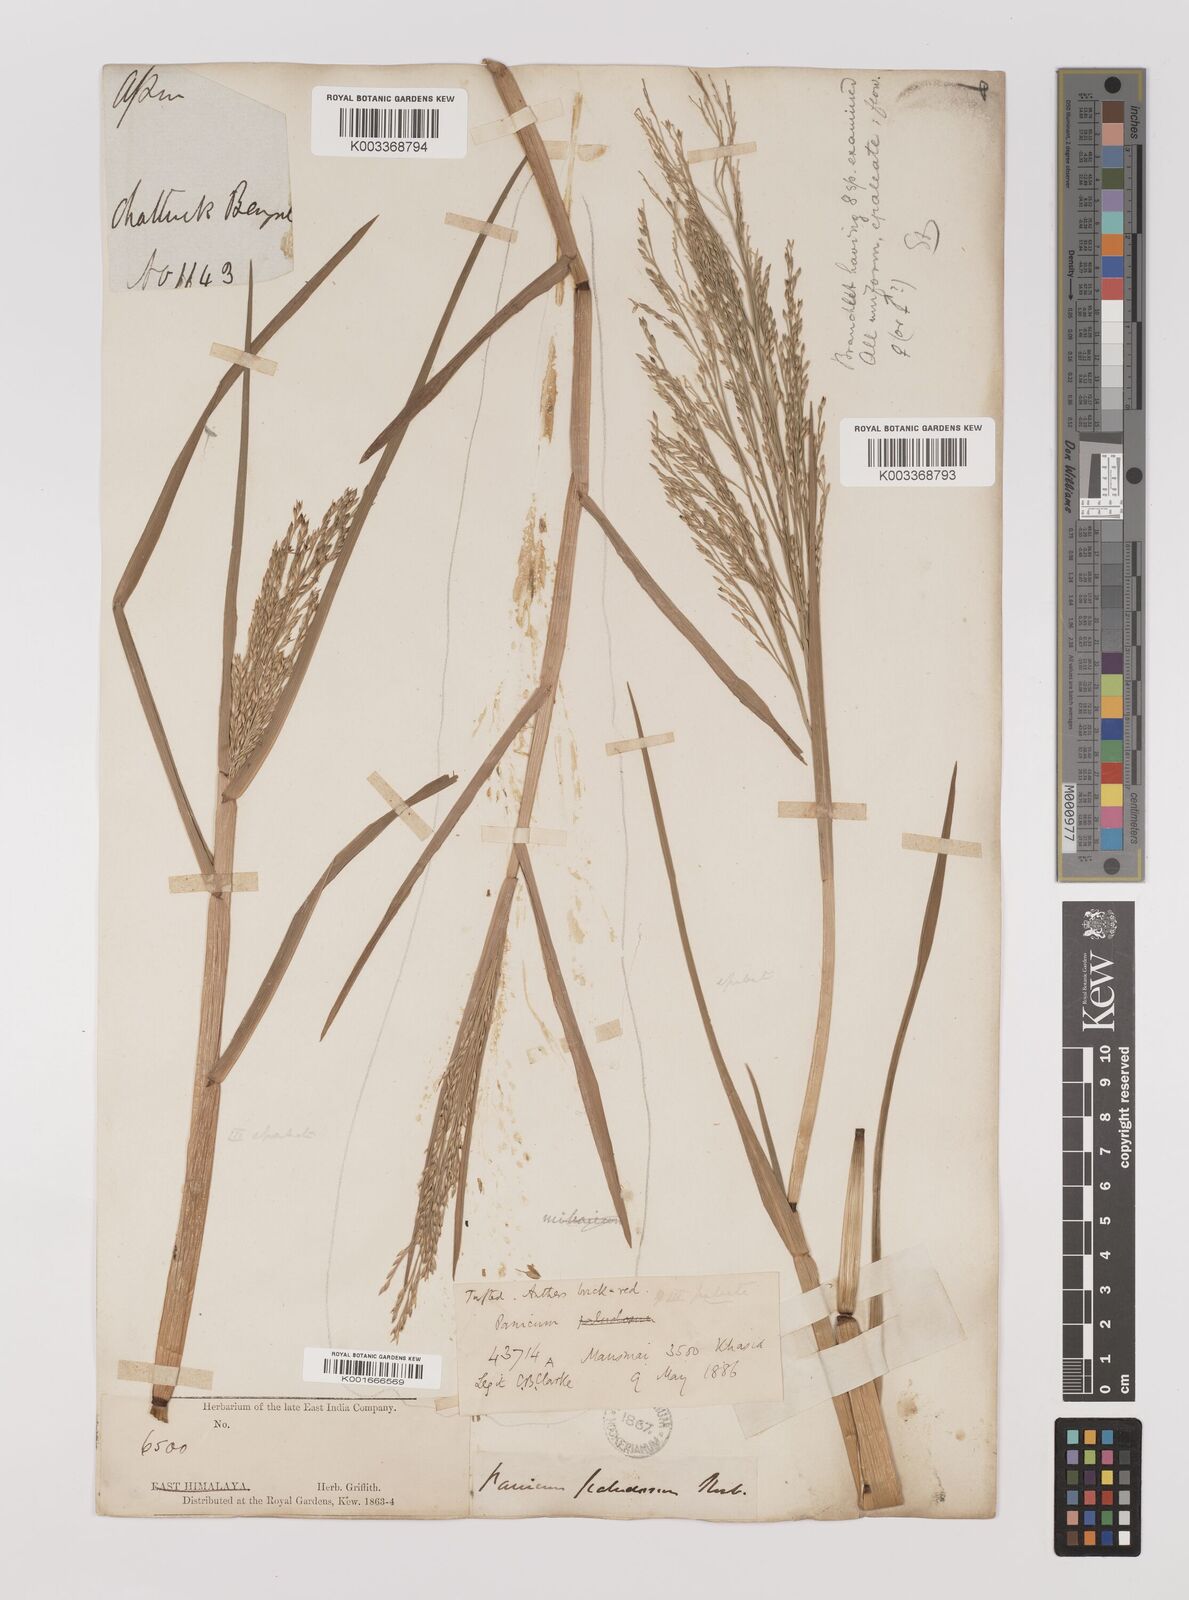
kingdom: Plantae
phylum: Tracheophyta
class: Liliopsida
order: Poales
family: Poaceae
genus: Louisiella
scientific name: Louisiella paludosa
